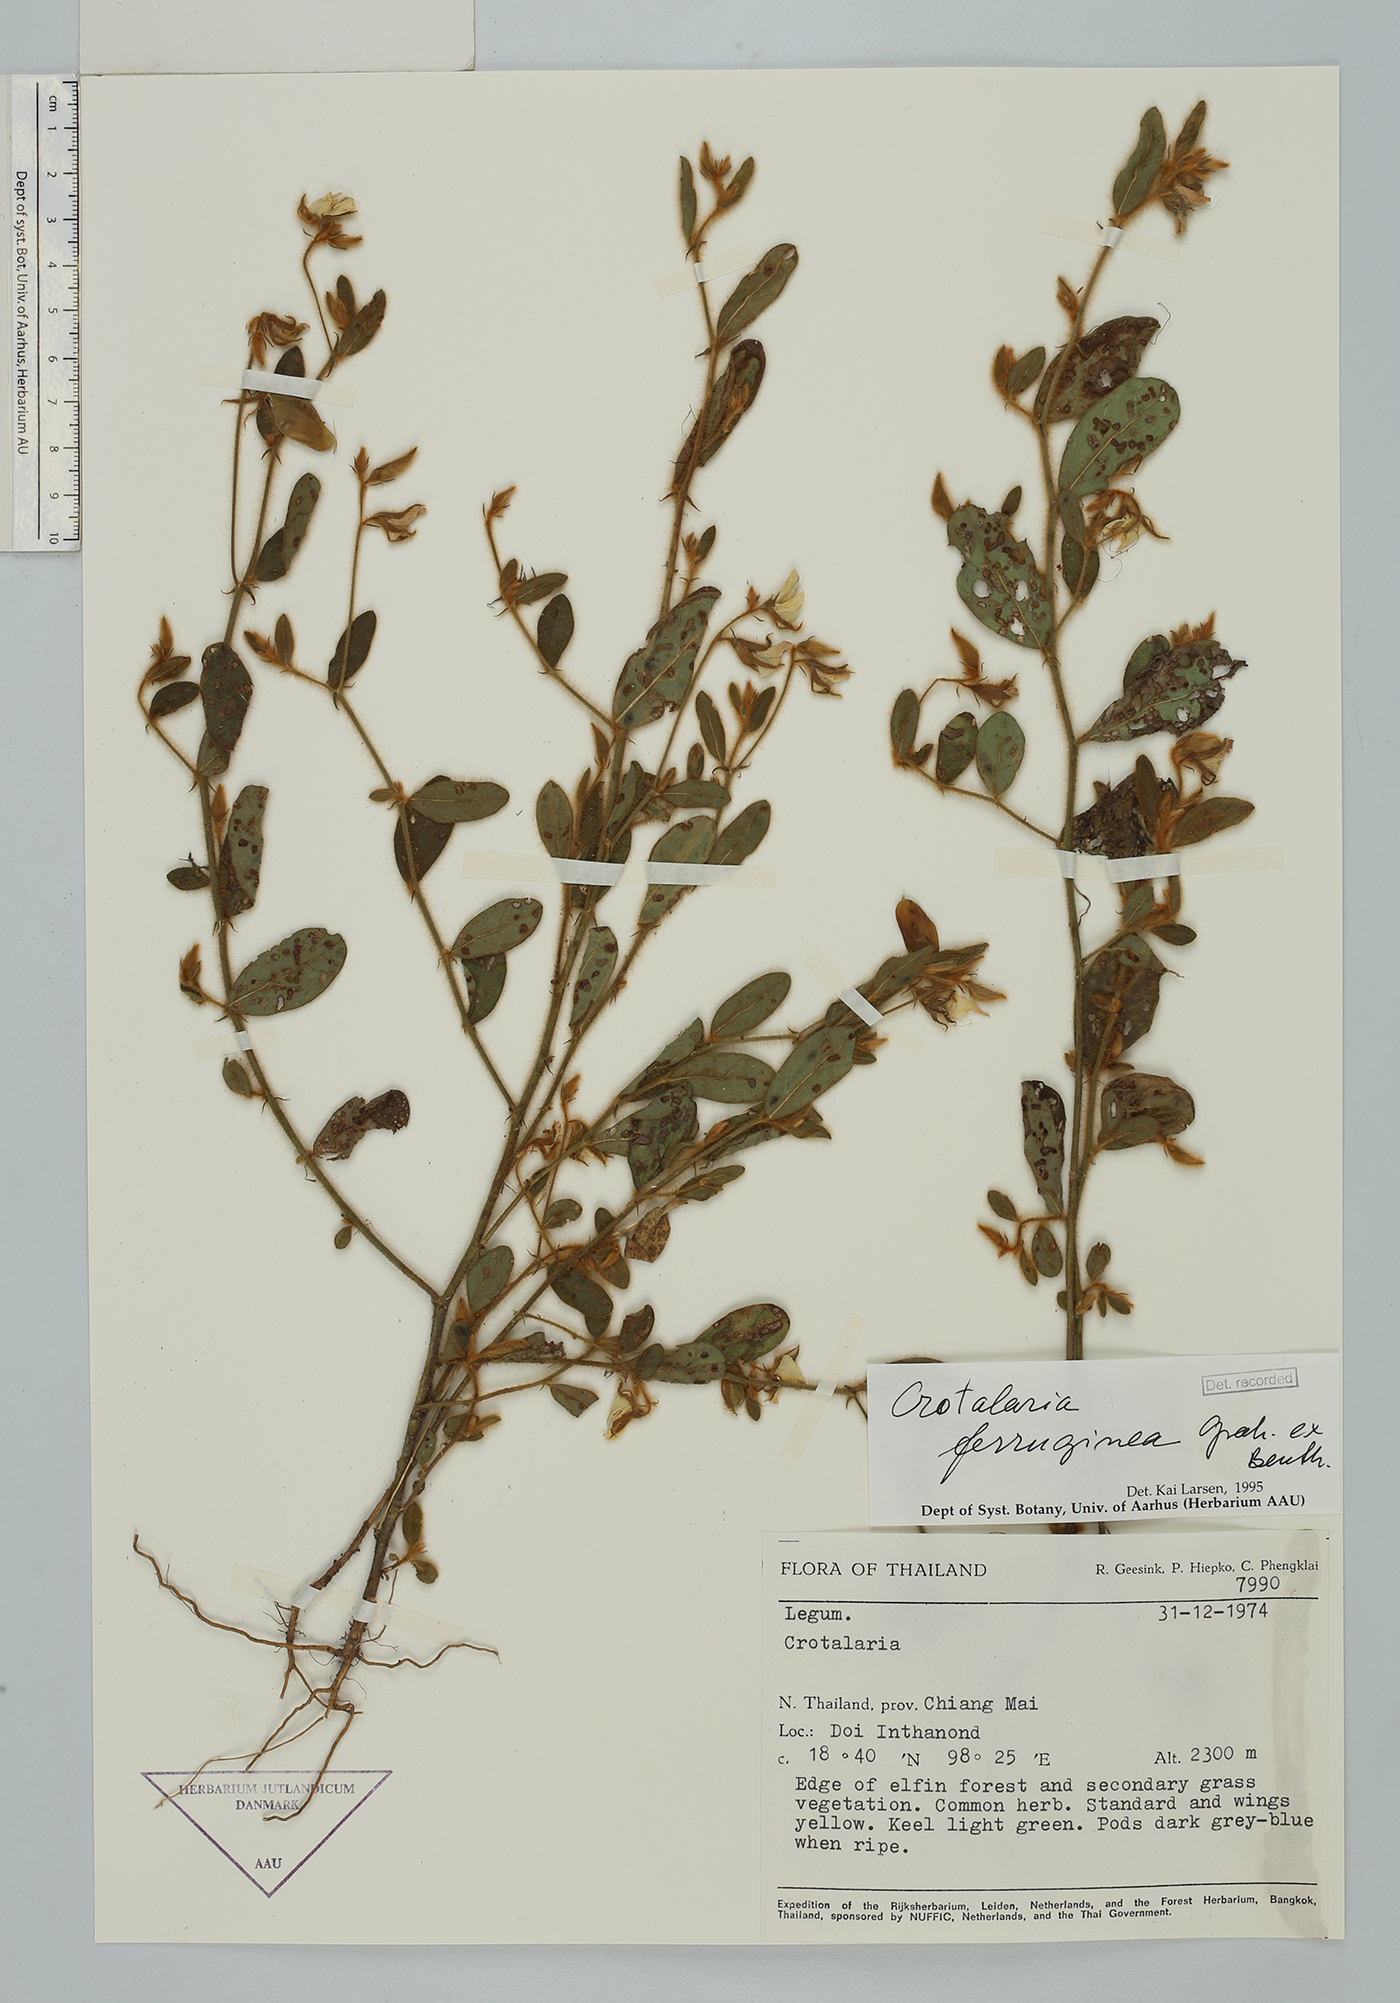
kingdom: Plantae
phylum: Tracheophyta
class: Magnoliopsida
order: Fabales
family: Fabaceae
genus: Crotalaria
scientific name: Crotalaria lejoloba
